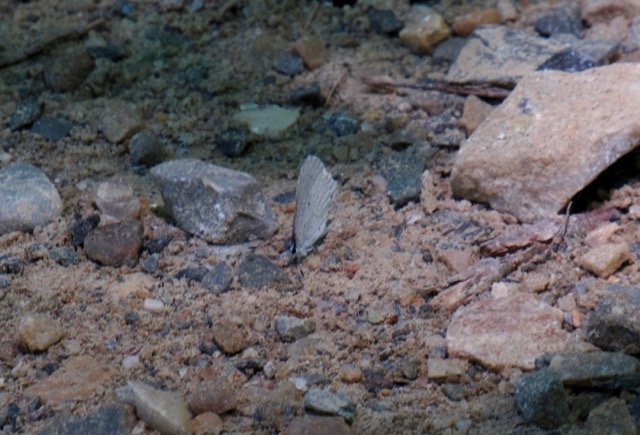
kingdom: Animalia
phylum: Arthropoda
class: Insecta
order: Lepidoptera
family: Lycaenidae
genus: Celastrina
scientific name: Celastrina
